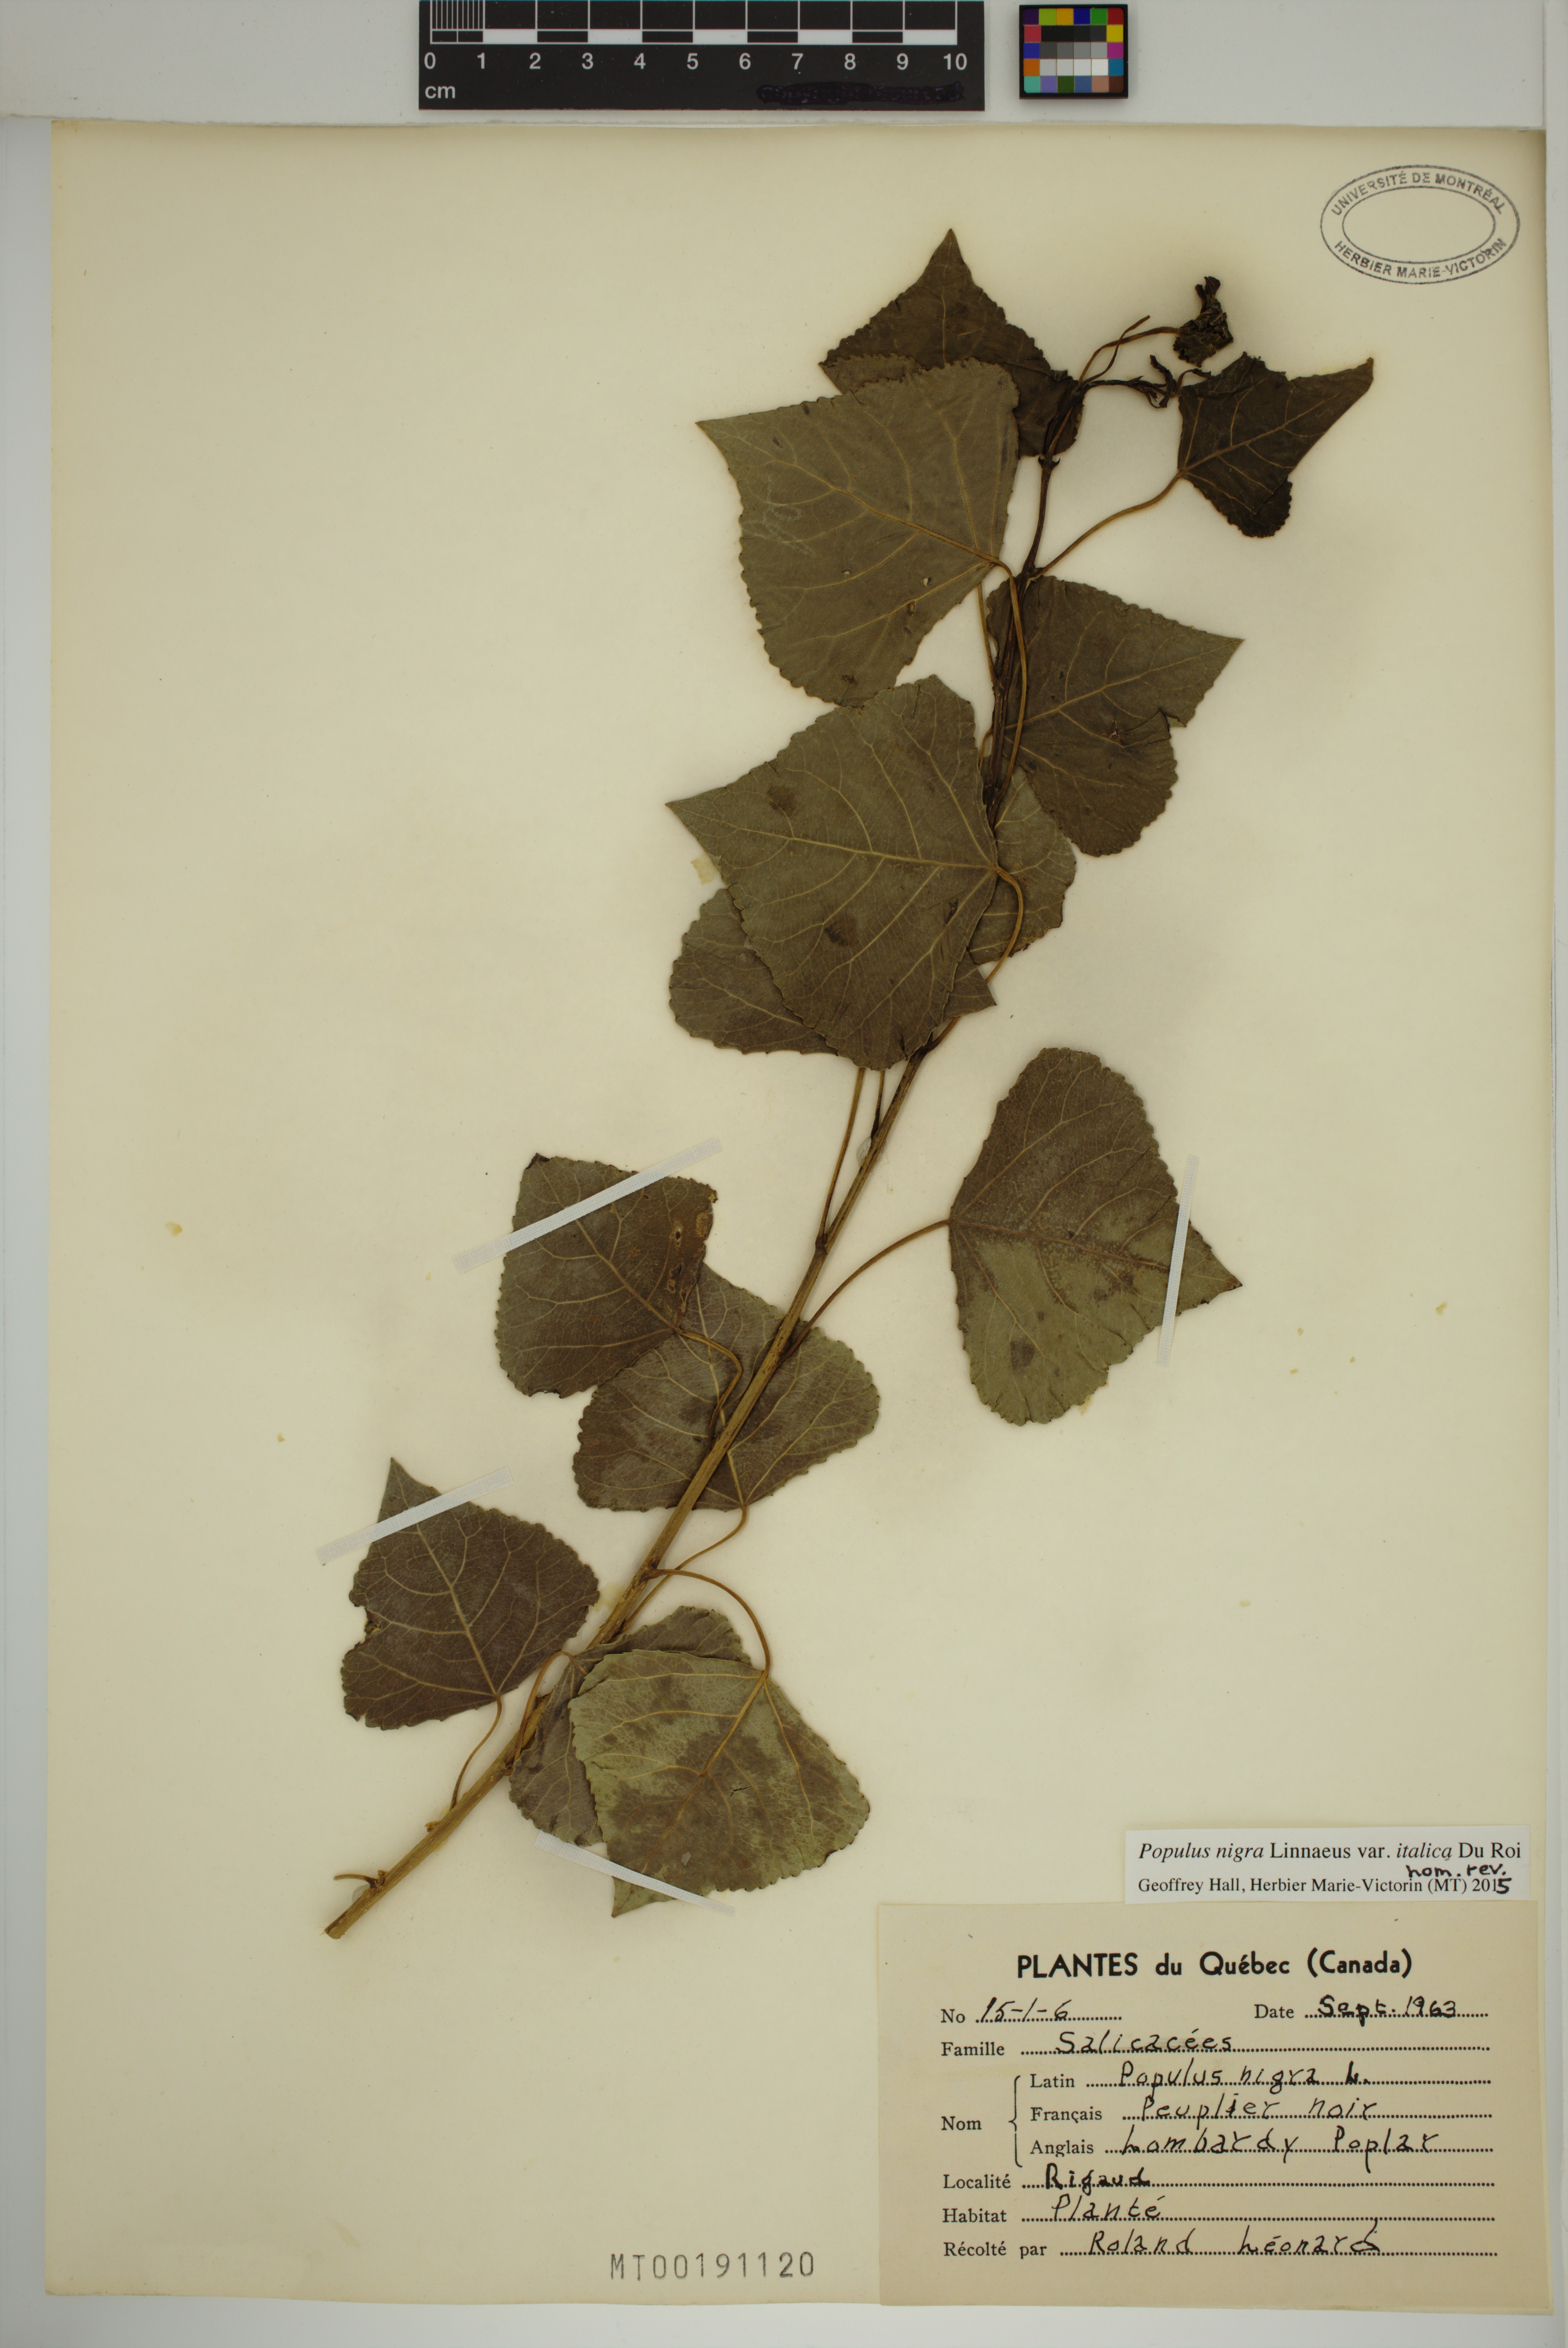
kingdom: Plantae
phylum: Tracheophyta
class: Magnoliopsida
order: Malpighiales
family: Salicaceae
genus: Populus
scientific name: Populus nigra
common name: Black poplar
